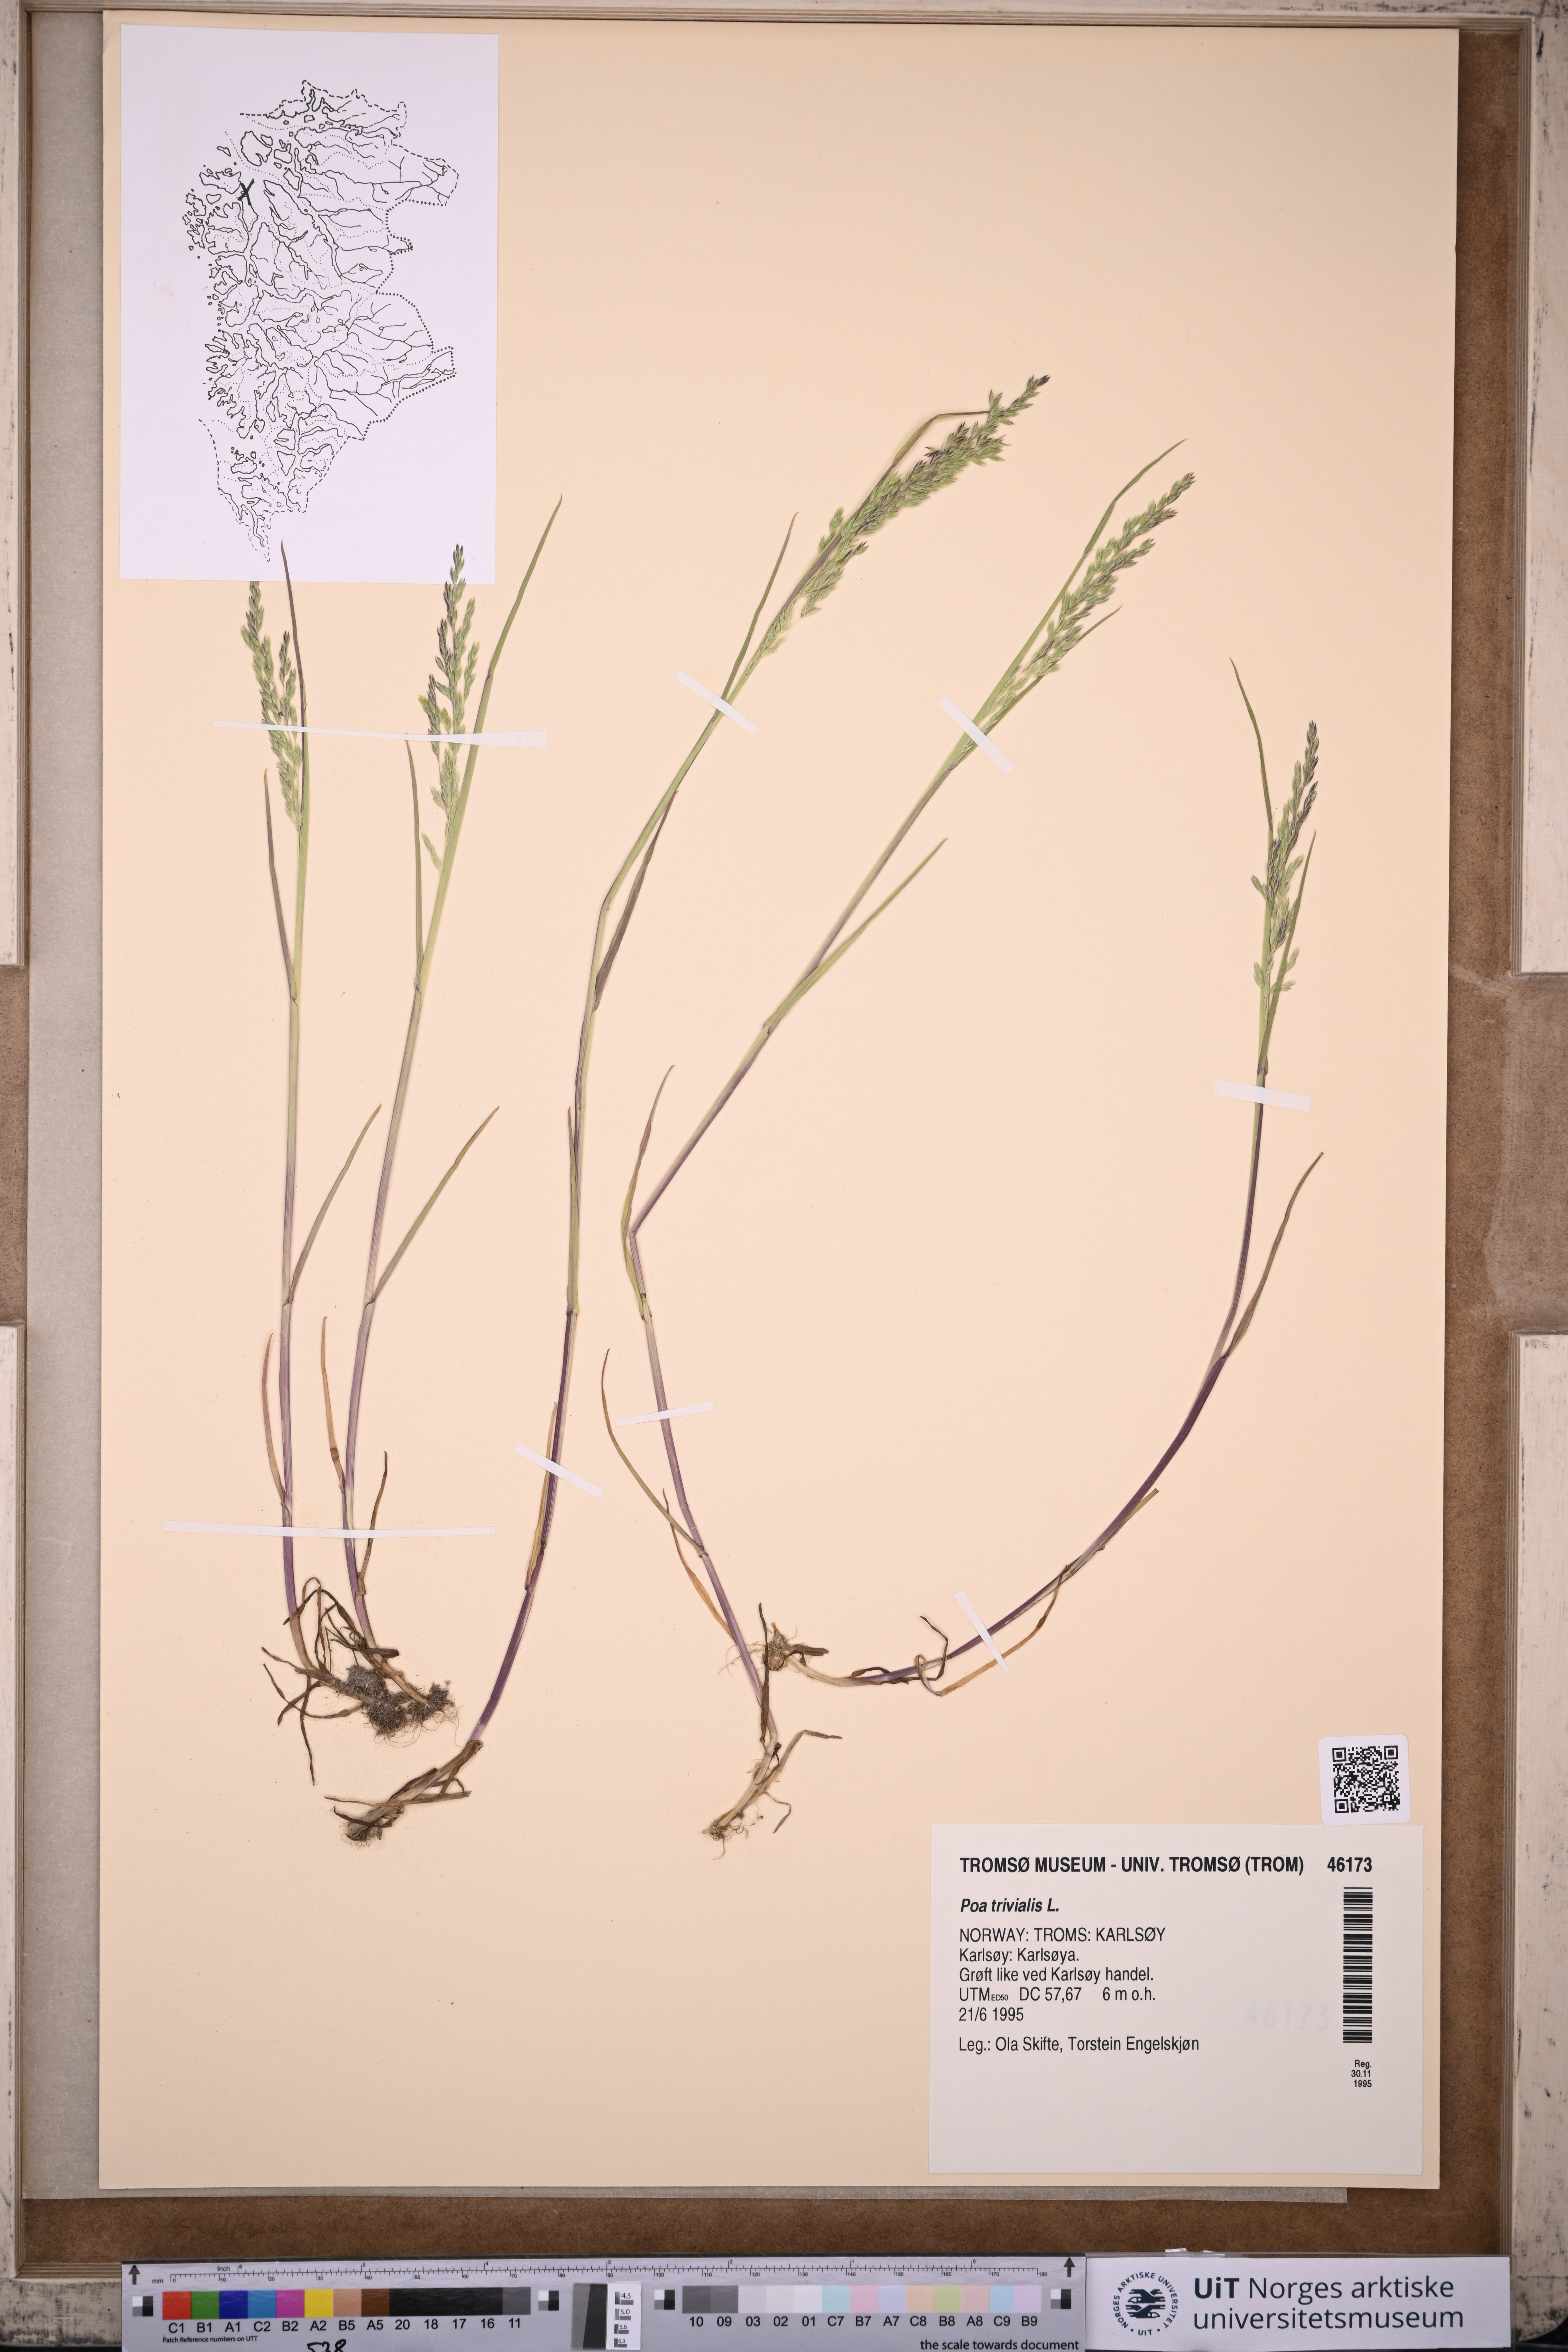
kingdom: Plantae
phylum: Tracheophyta
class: Liliopsida
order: Poales
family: Poaceae
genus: Poa
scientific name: Poa trivialis
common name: Rough bluegrass
